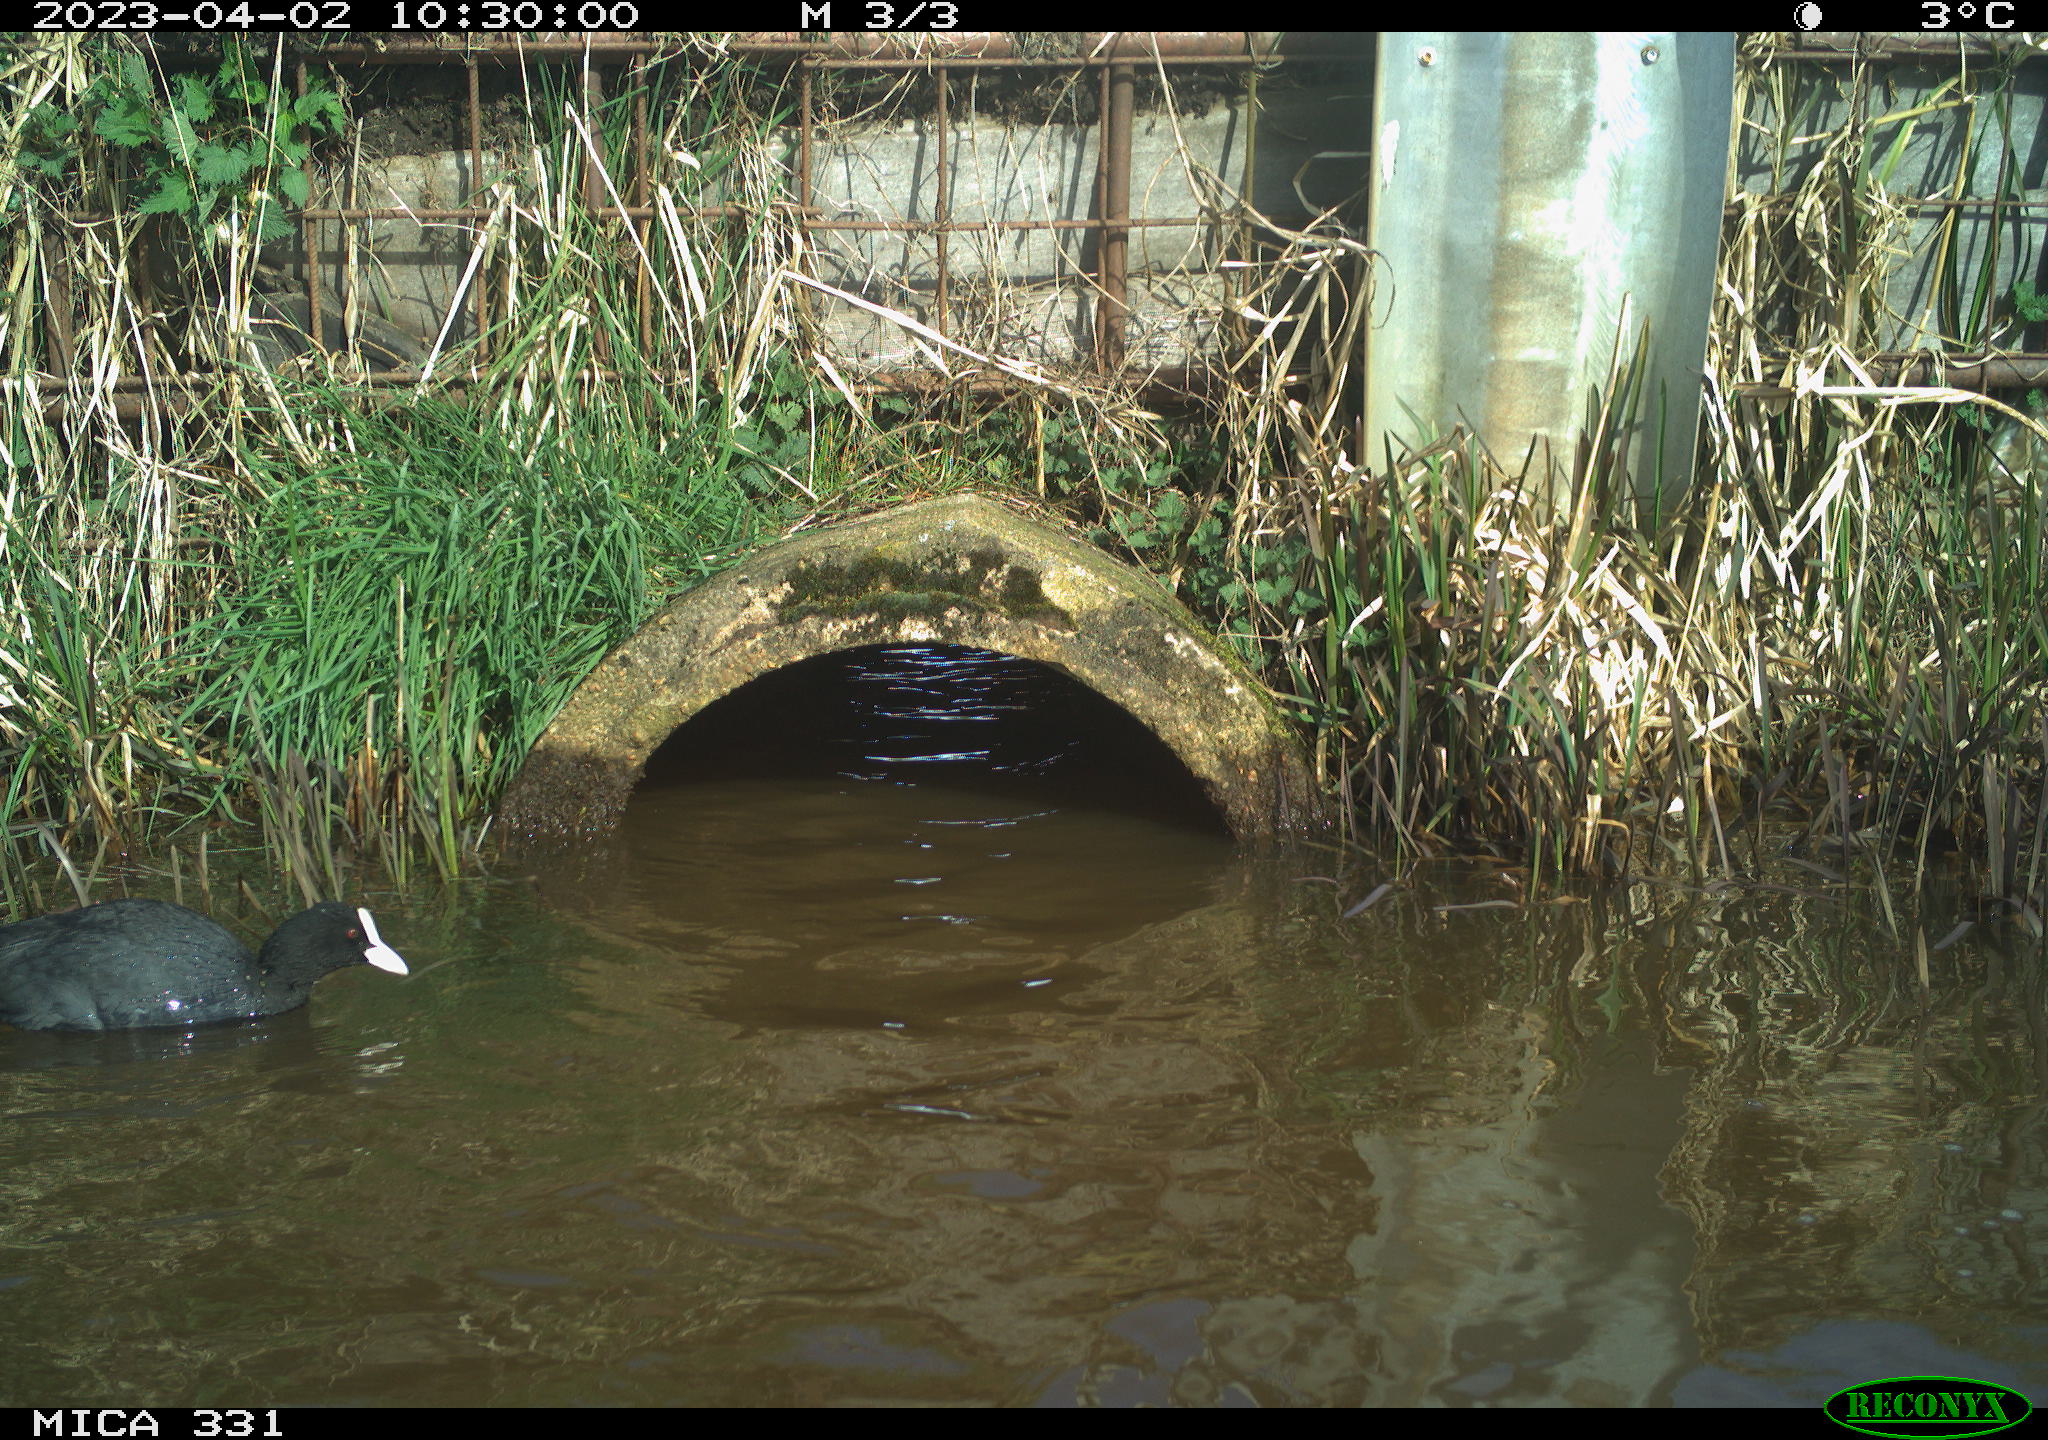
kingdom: Animalia
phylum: Chordata
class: Aves
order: Gruiformes
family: Rallidae
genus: Fulica
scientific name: Fulica atra
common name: Eurasian coot
